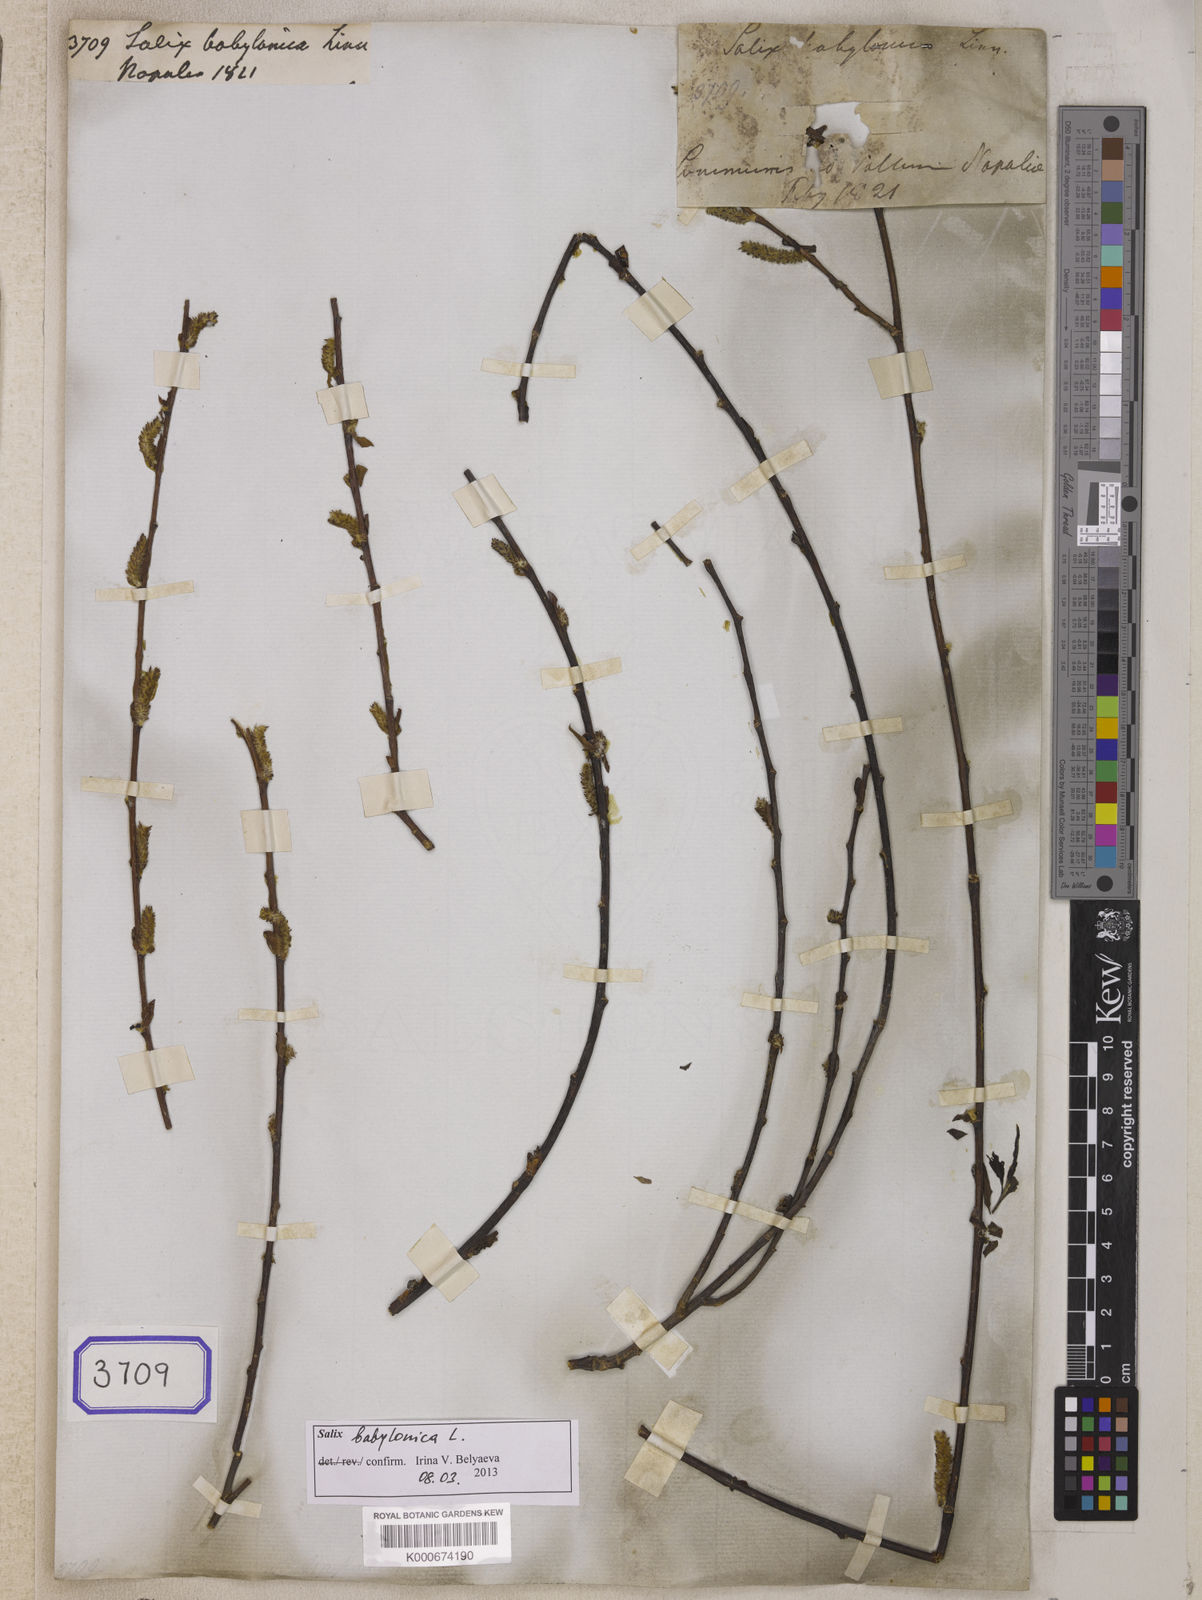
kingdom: Plantae
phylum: Tracheophyta
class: Magnoliopsida
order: Malpighiales
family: Salicaceae
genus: Salix
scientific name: Salix babylonica
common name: Weeping willow
